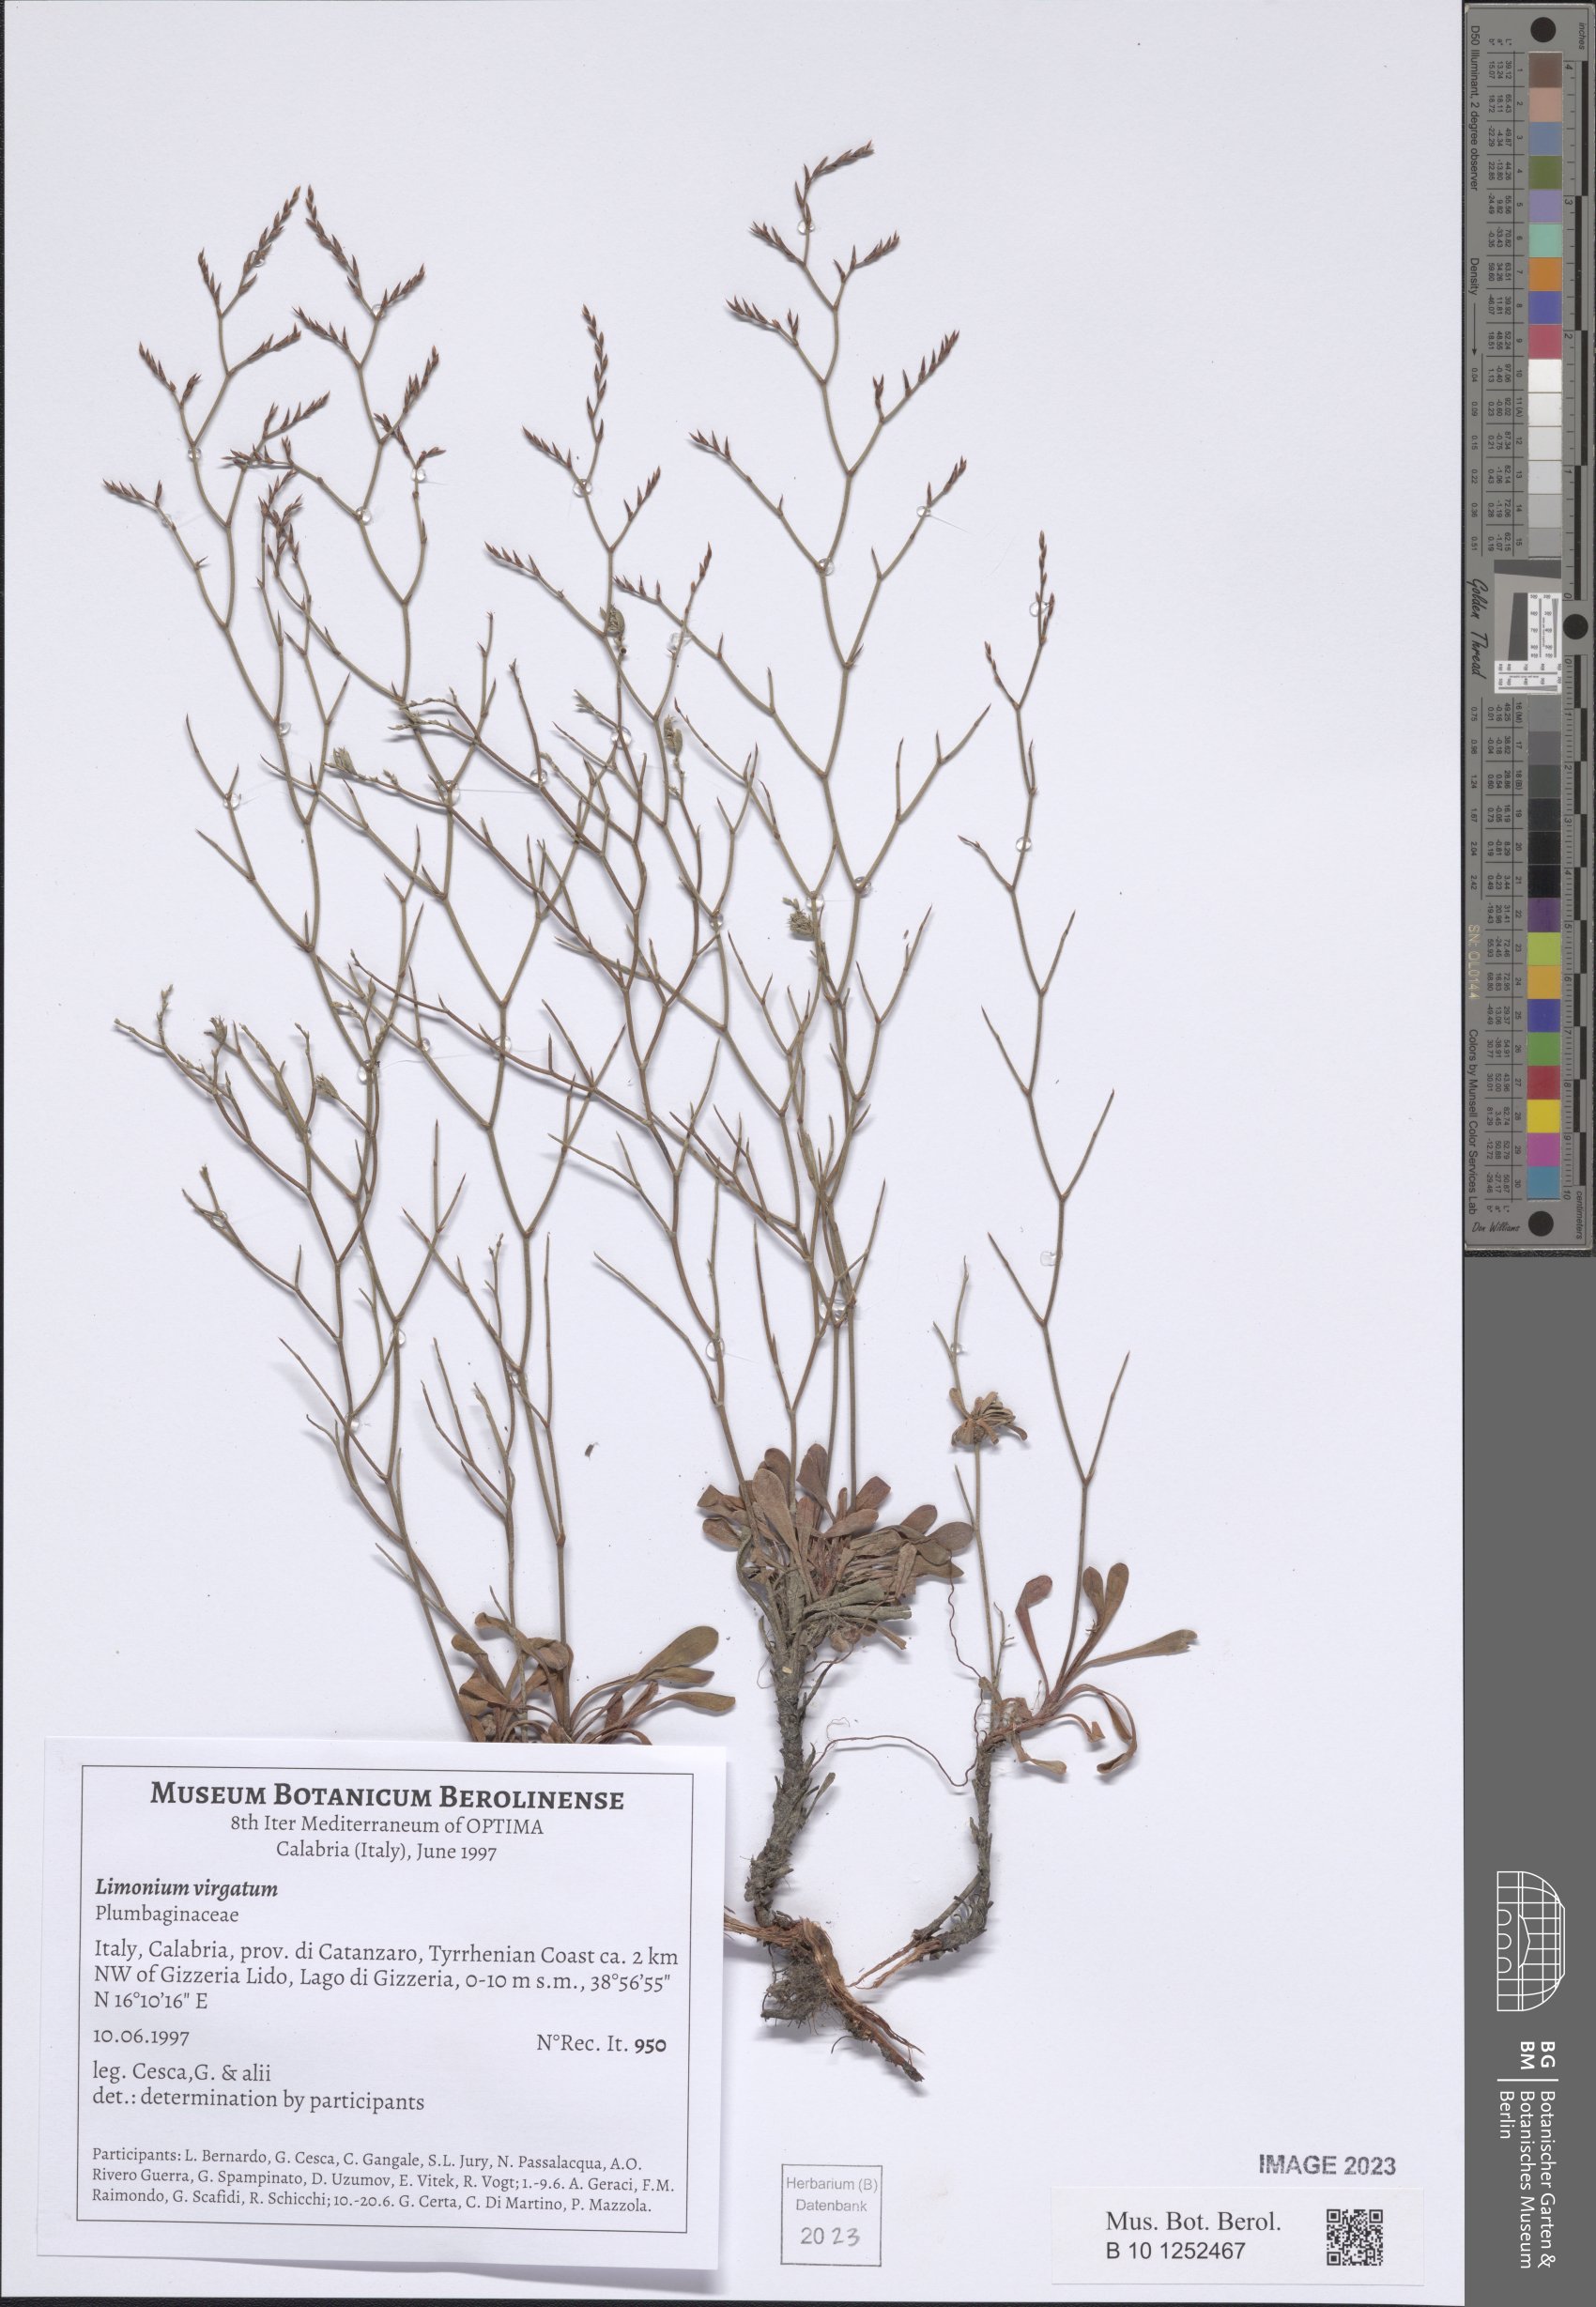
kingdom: Plantae
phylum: Tracheophyta
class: Magnoliopsida
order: Caryophyllales
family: Plumbaginaceae
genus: Limonium
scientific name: Limonium virgatum
